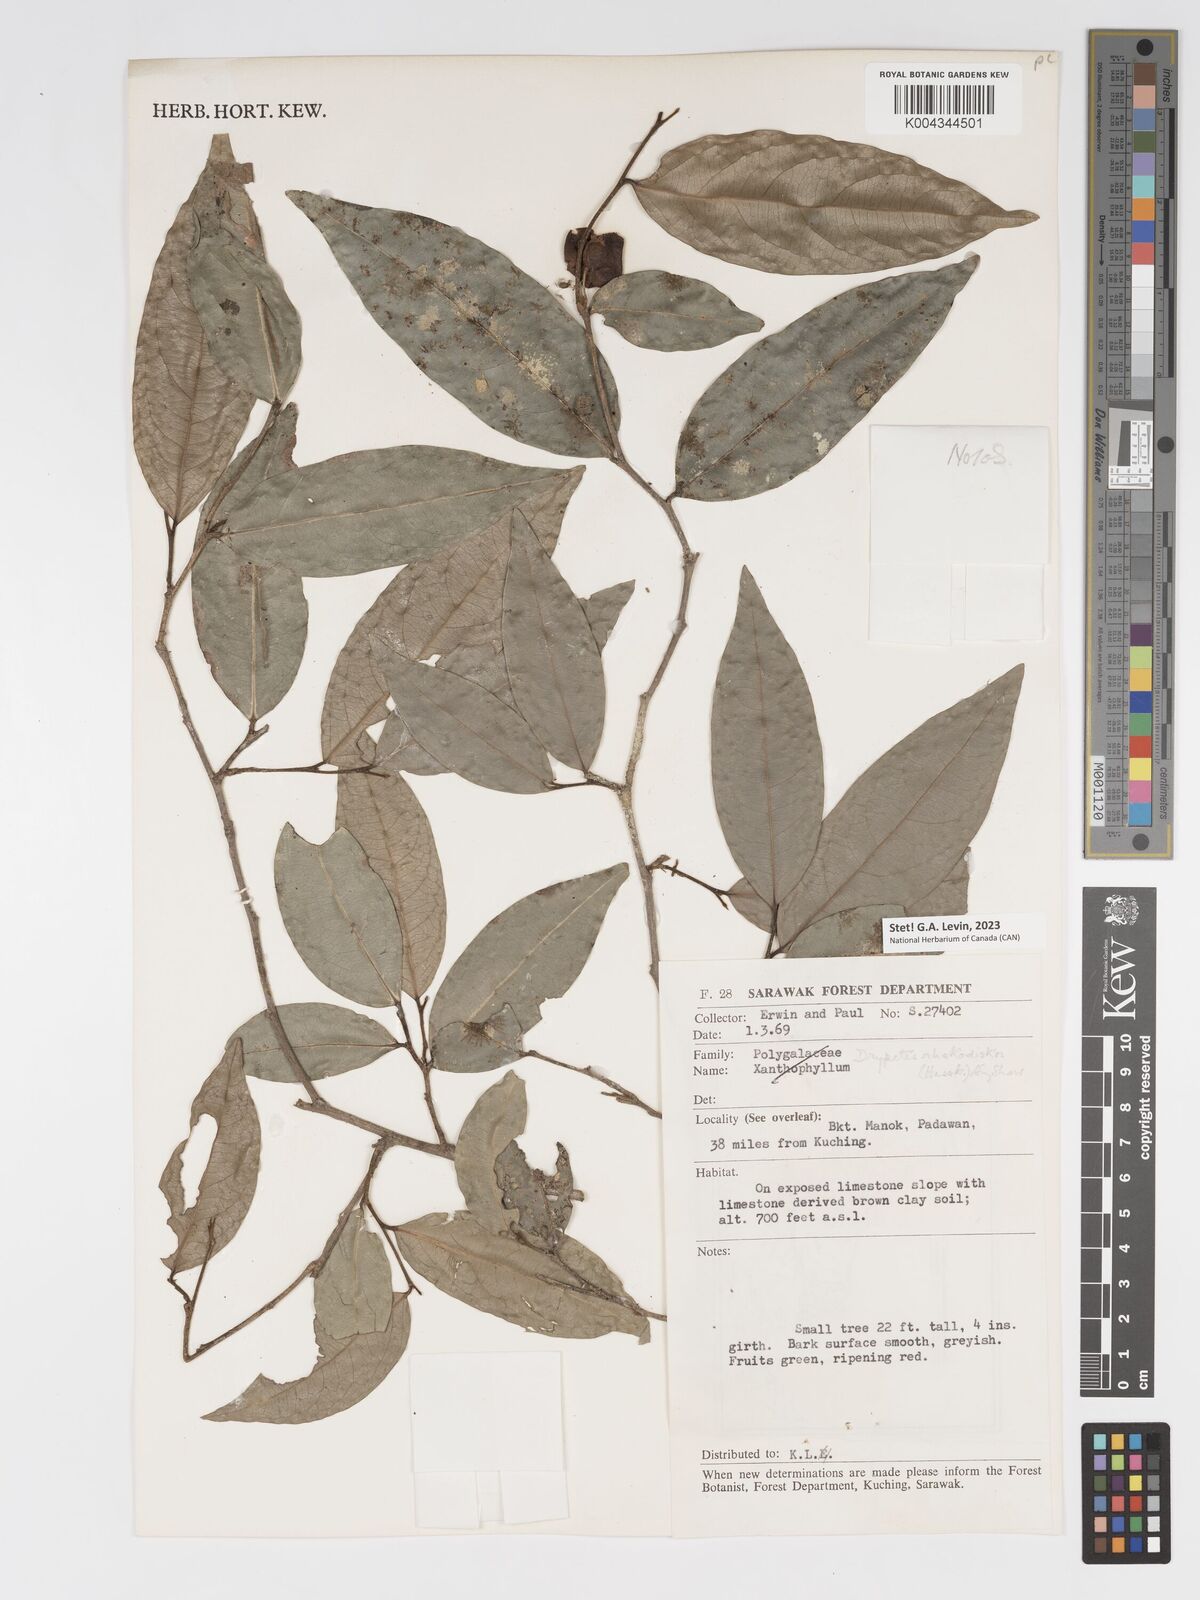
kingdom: Plantae
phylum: Tracheophyta
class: Magnoliopsida
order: Malpighiales
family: Putranjivaceae
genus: Drypetes
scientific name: Drypetes rhakodiskos
